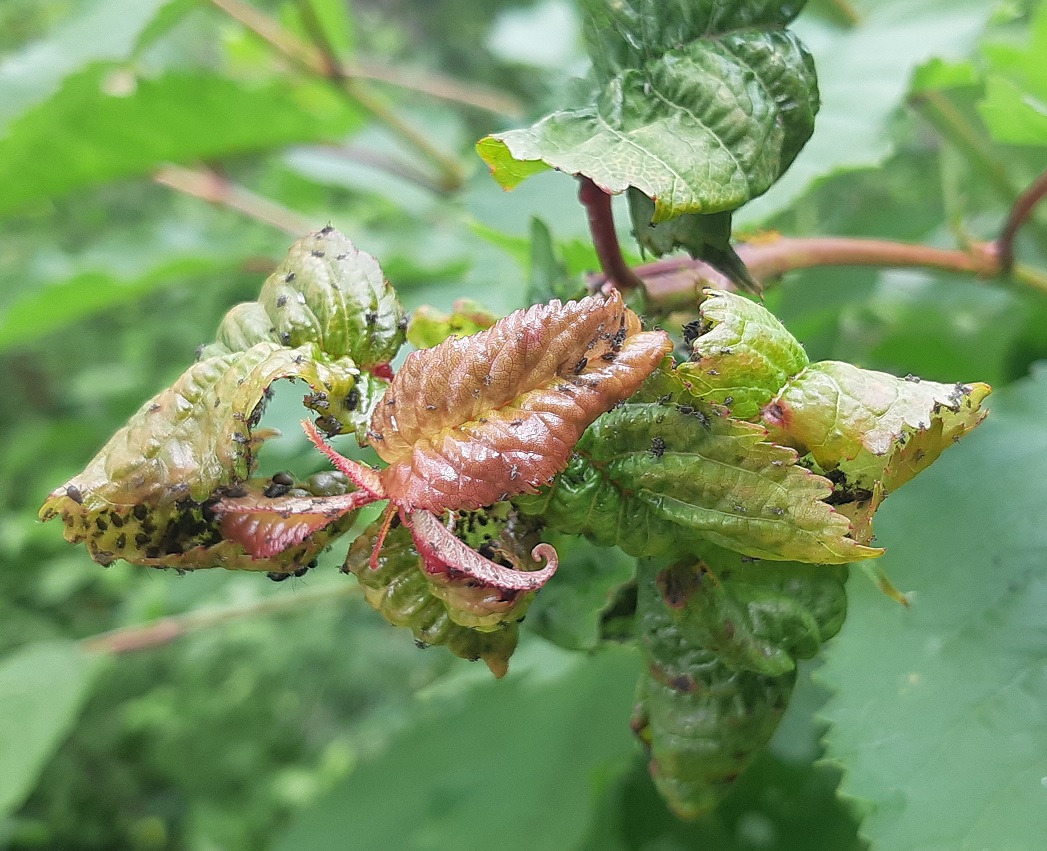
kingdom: Animalia
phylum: Arthropoda
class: Insecta
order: Hemiptera
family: Aphididae
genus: Myzus
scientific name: Myzus cerasi
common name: Kirsebærbladlus
